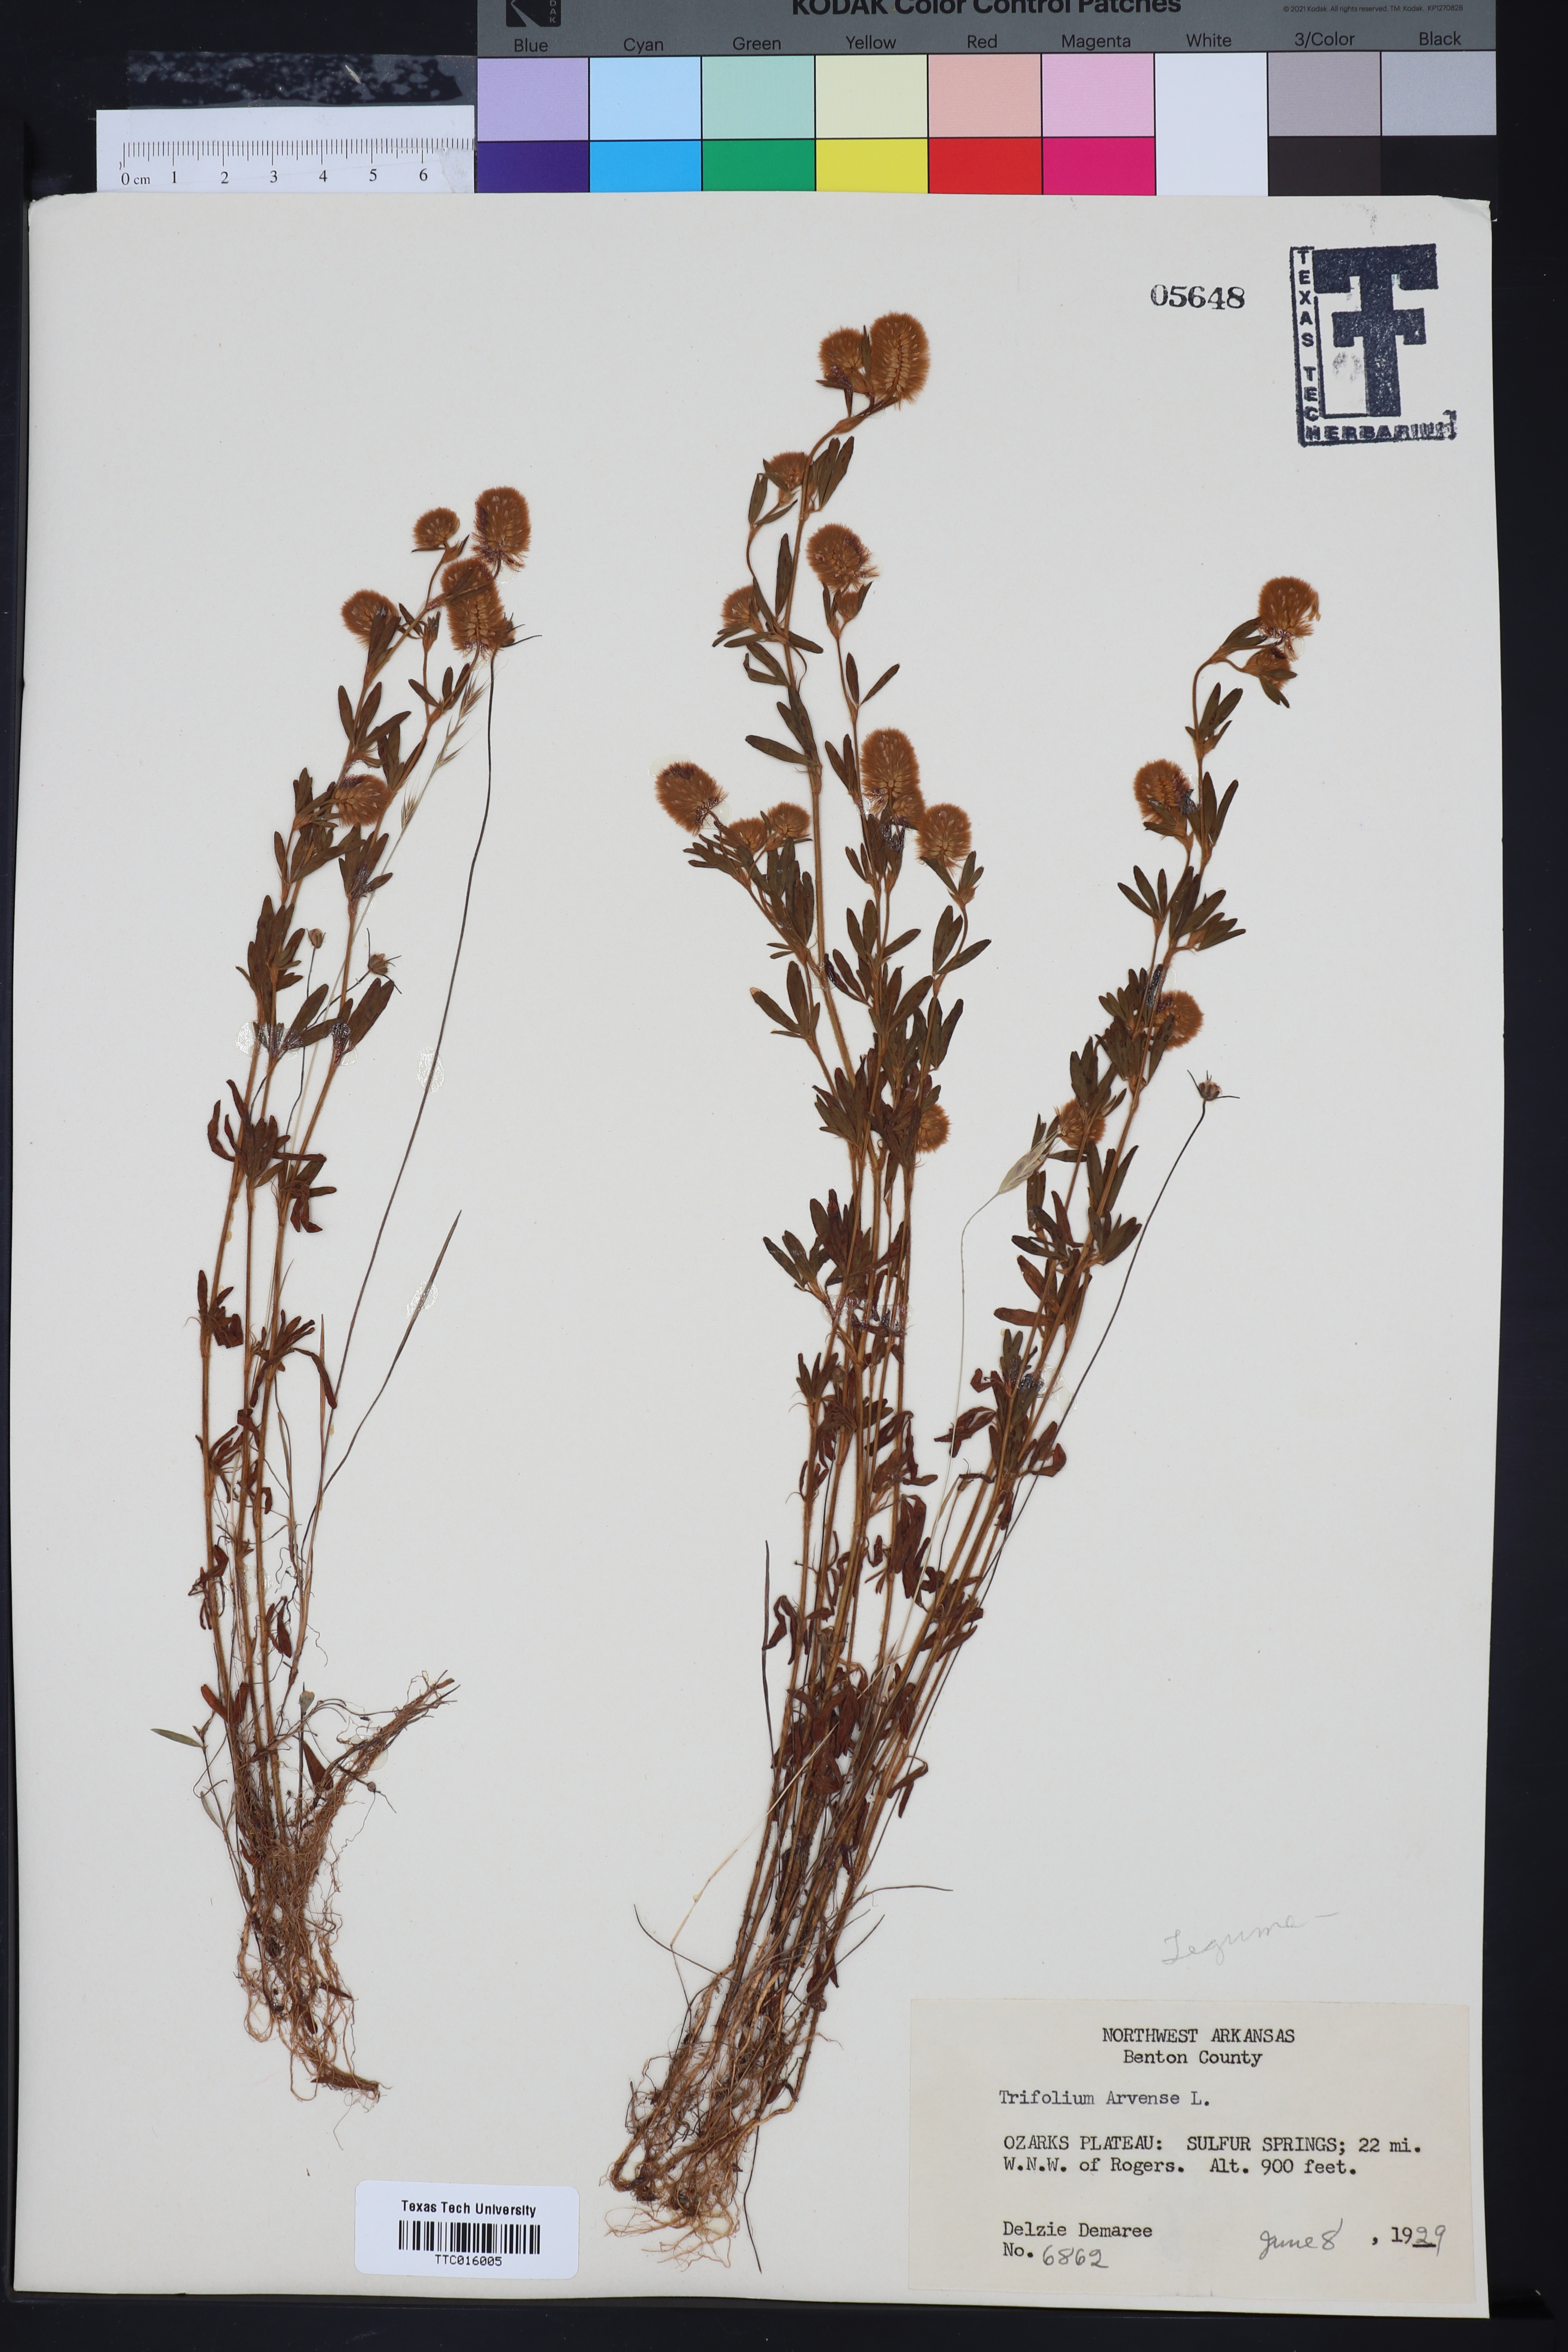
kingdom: Plantae
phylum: Tracheophyta
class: Magnoliopsida
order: Fabales
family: Fabaceae
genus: Trifolium
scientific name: Trifolium arvense
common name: Hare's-foot clover
